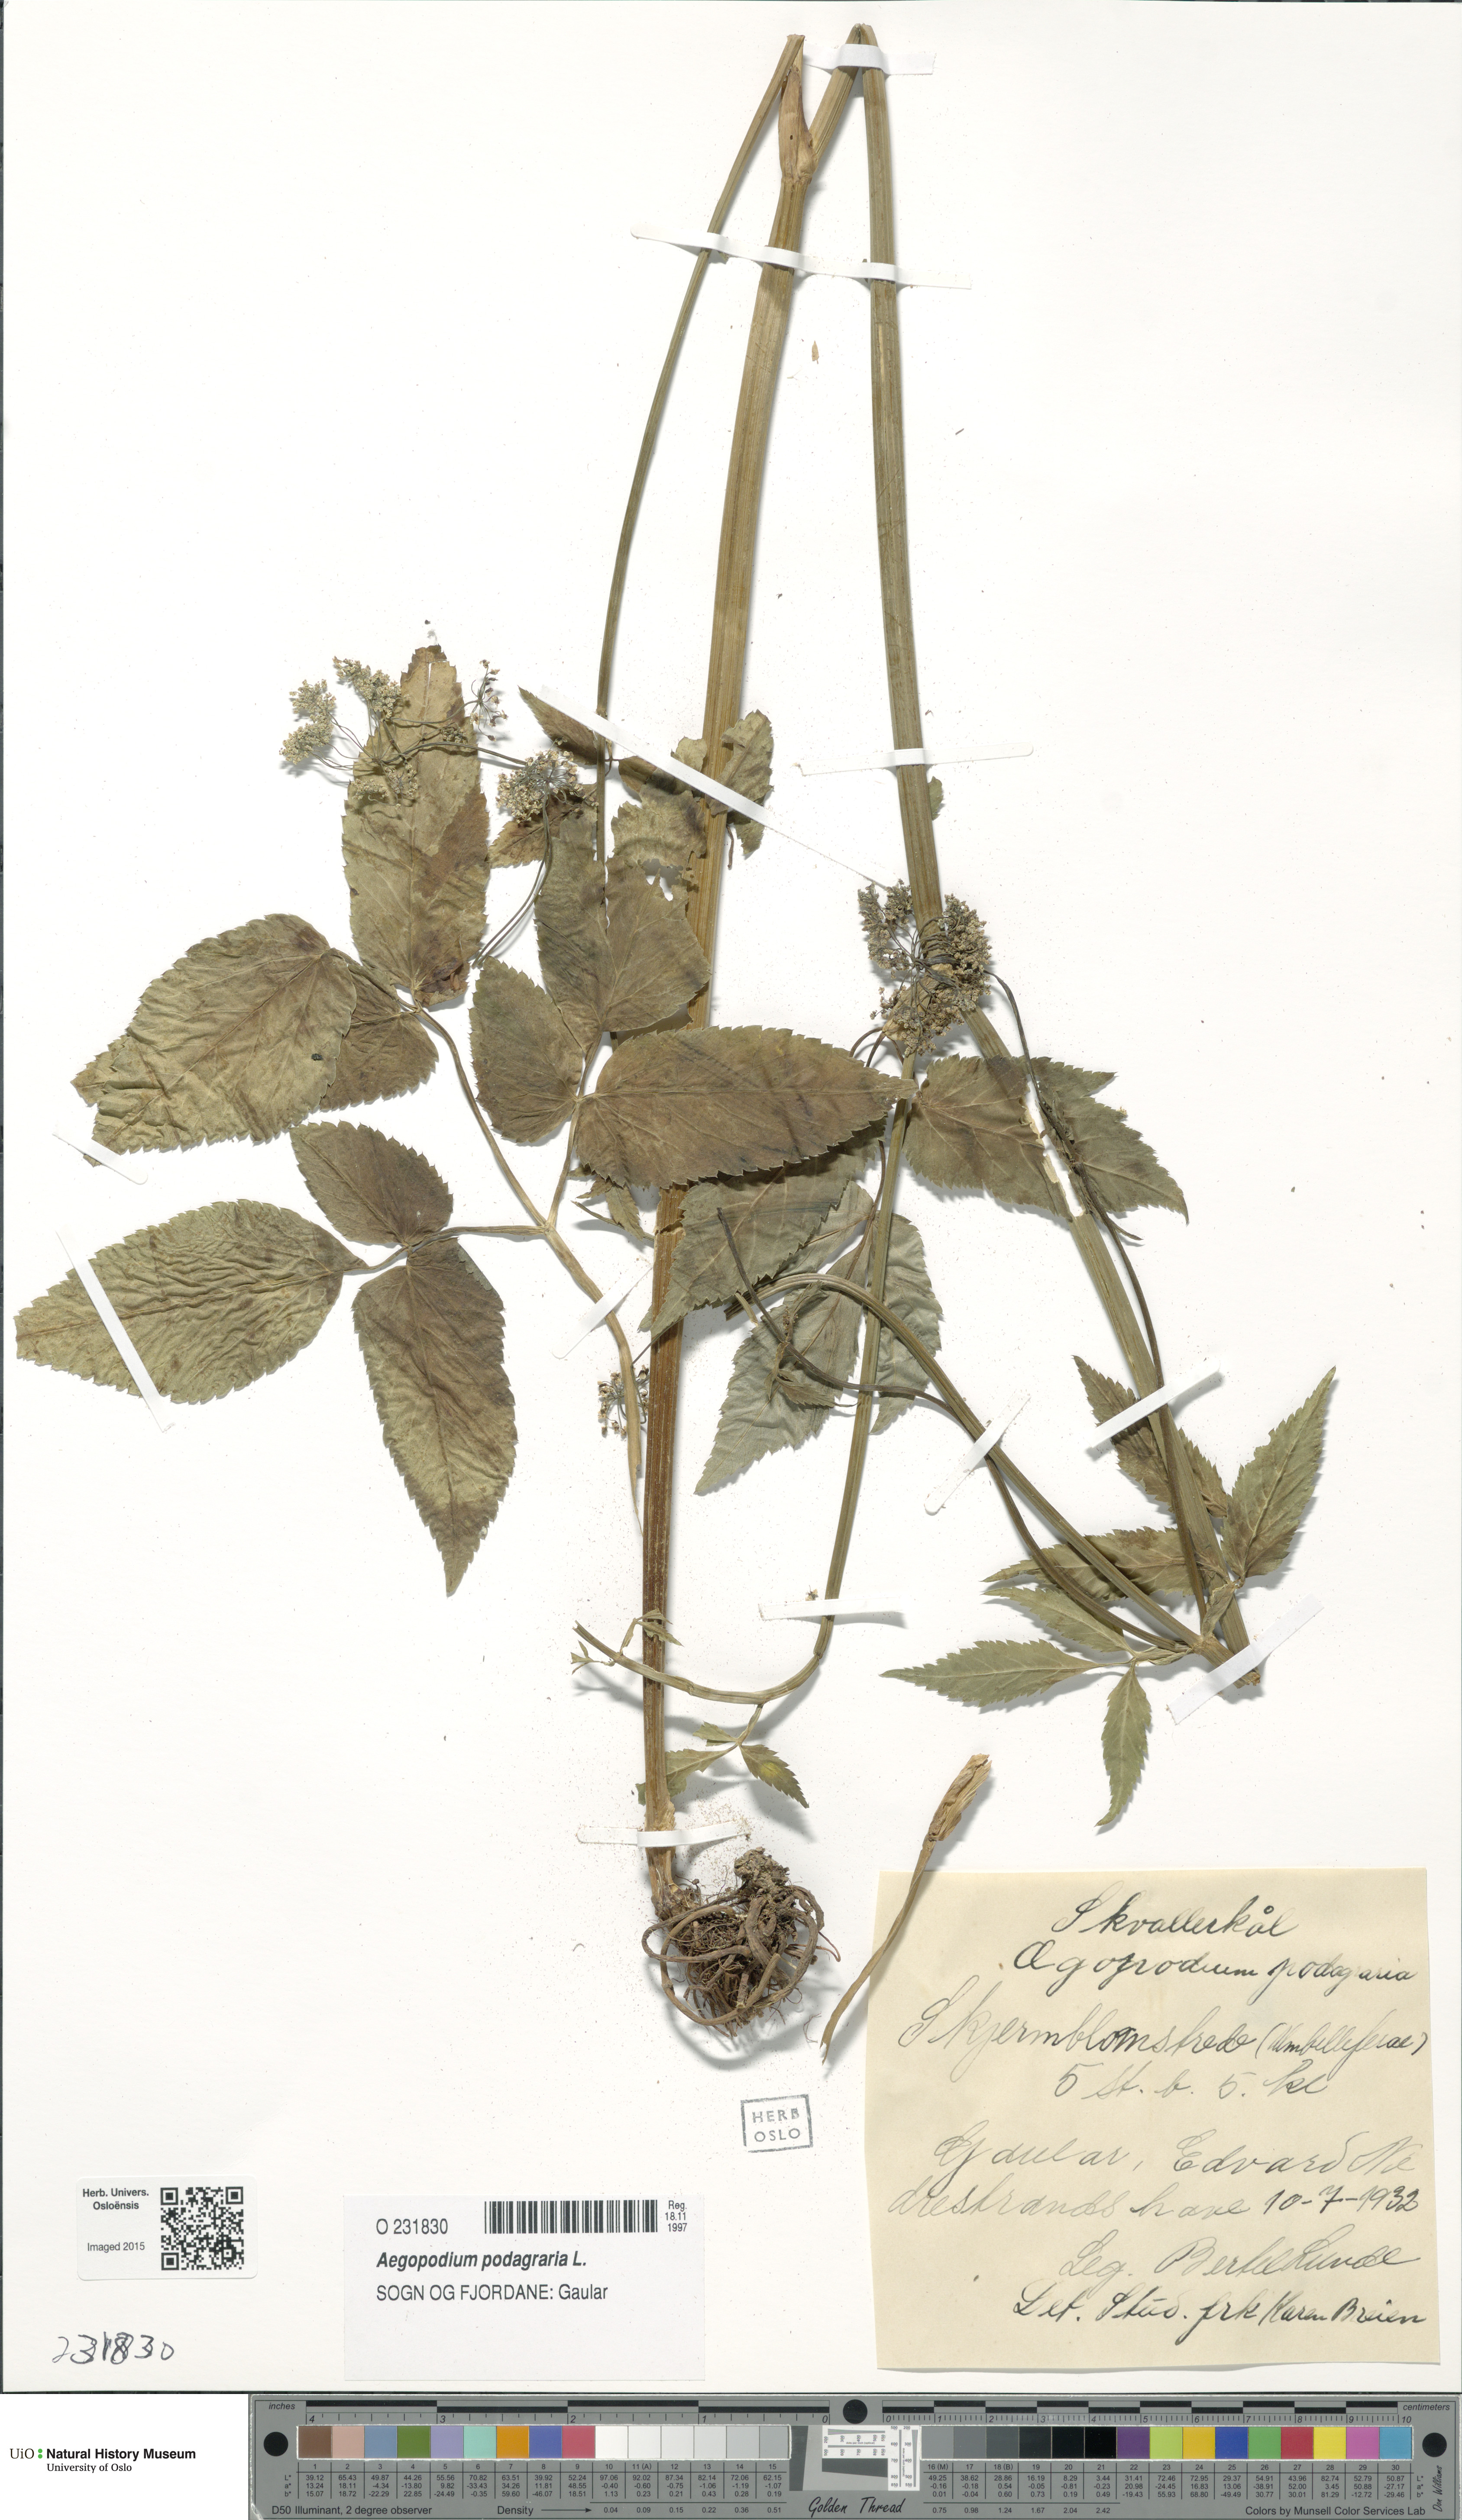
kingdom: Plantae
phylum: Tracheophyta
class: Magnoliopsida
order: Apiales
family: Apiaceae
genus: Aegopodium
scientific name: Aegopodium podagraria
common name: Ground-elder
